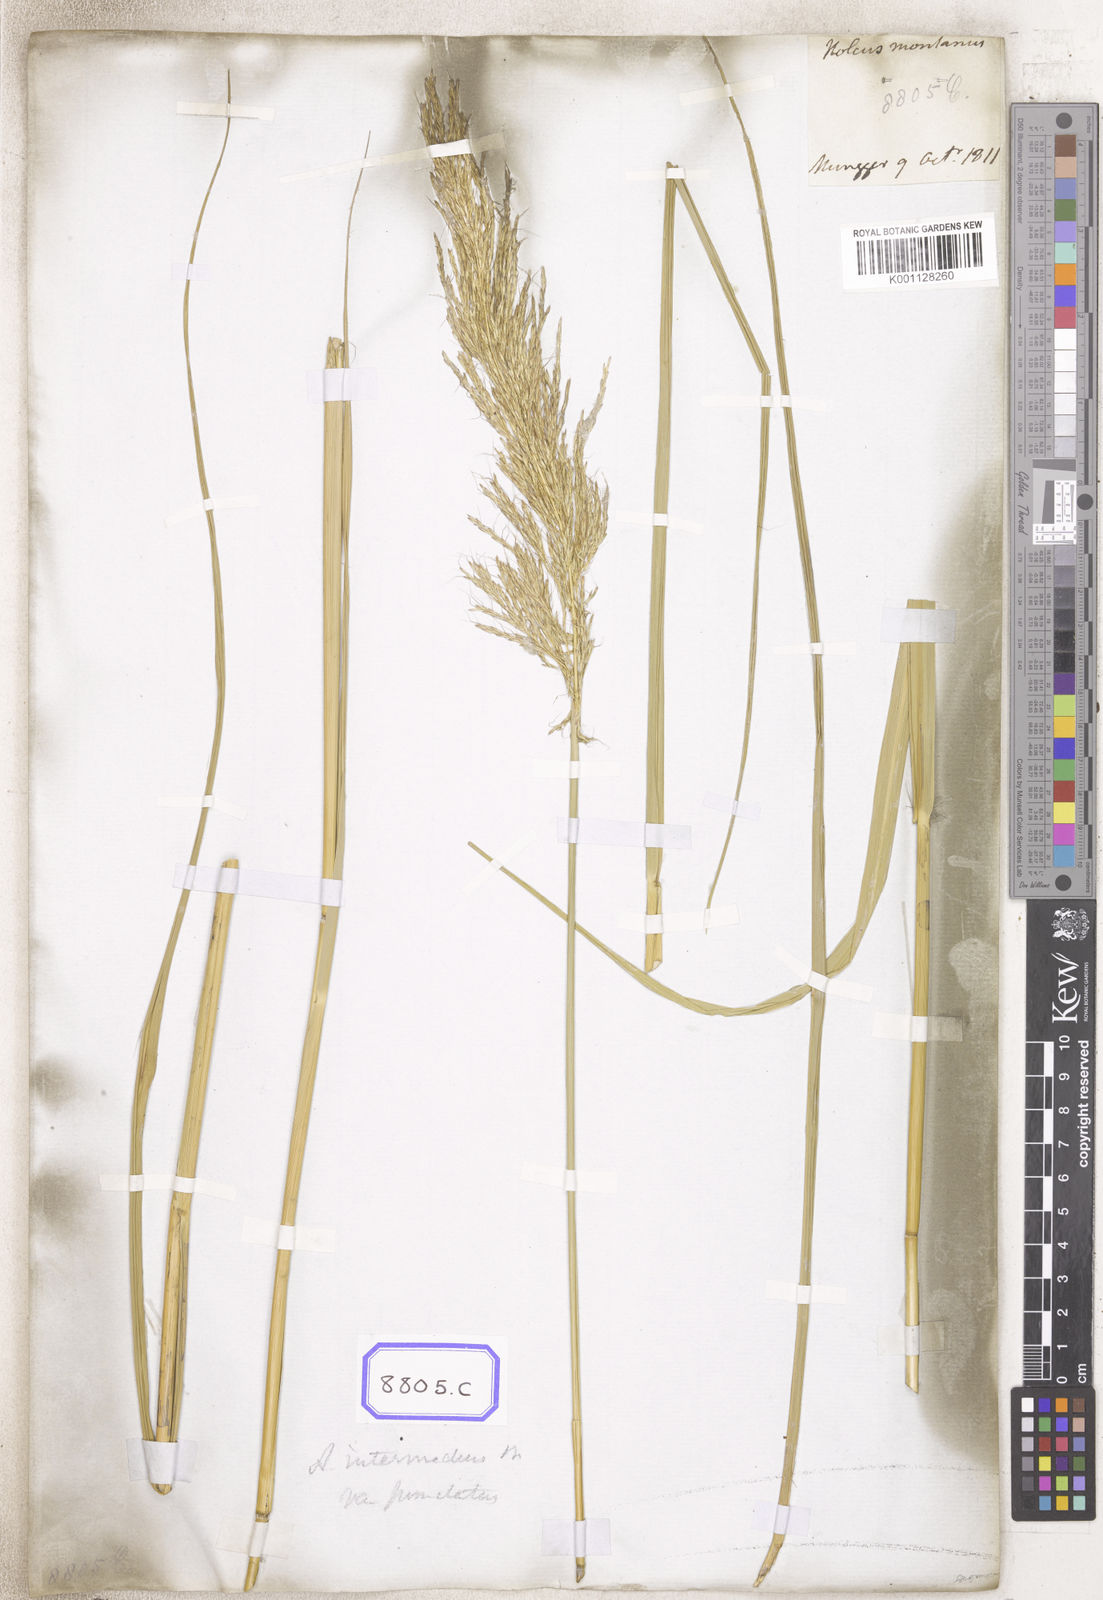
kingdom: Plantae
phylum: Tracheophyta
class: Liliopsida
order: Poales
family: Poaceae
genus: Andropogon
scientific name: Andropogon
